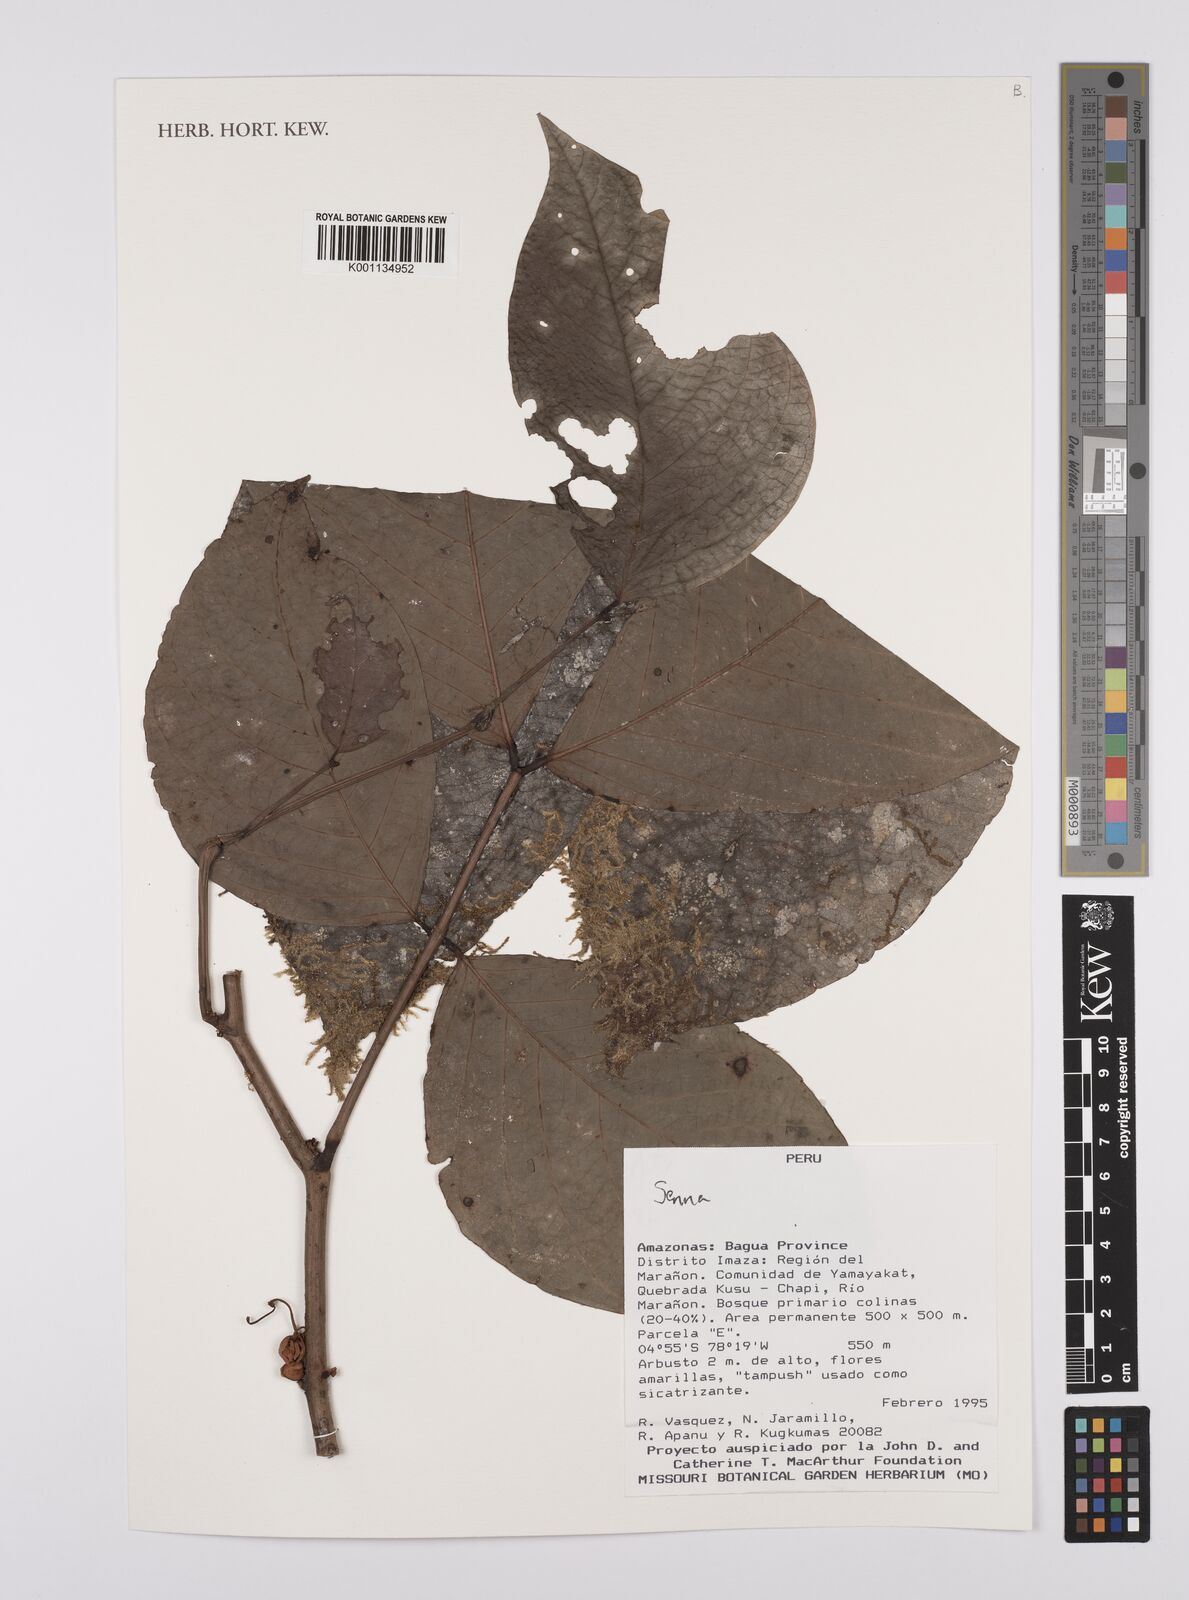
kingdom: Plantae
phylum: Tracheophyta
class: Magnoliopsida
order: Fabales
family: Fabaceae
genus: Senna
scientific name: Senna
